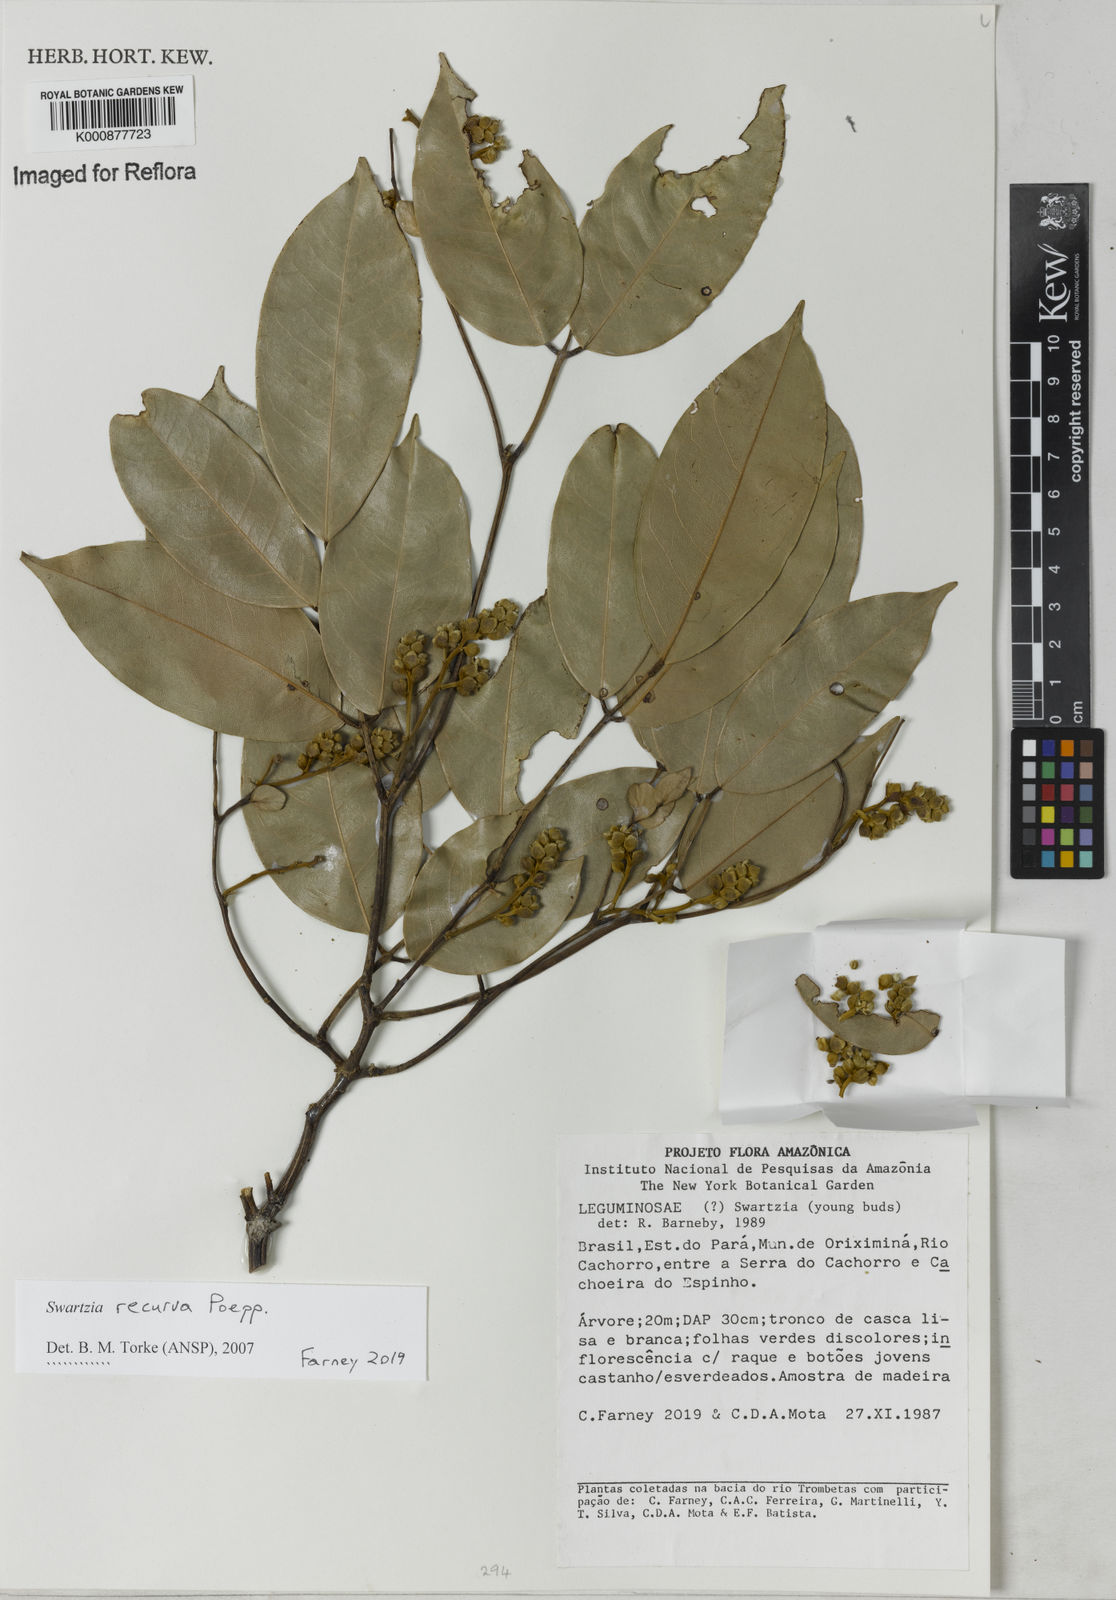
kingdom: Plantae
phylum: Tracheophyta
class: Magnoliopsida
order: Fabales
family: Fabaceae
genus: Swartzia
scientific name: Swartzia recurva
